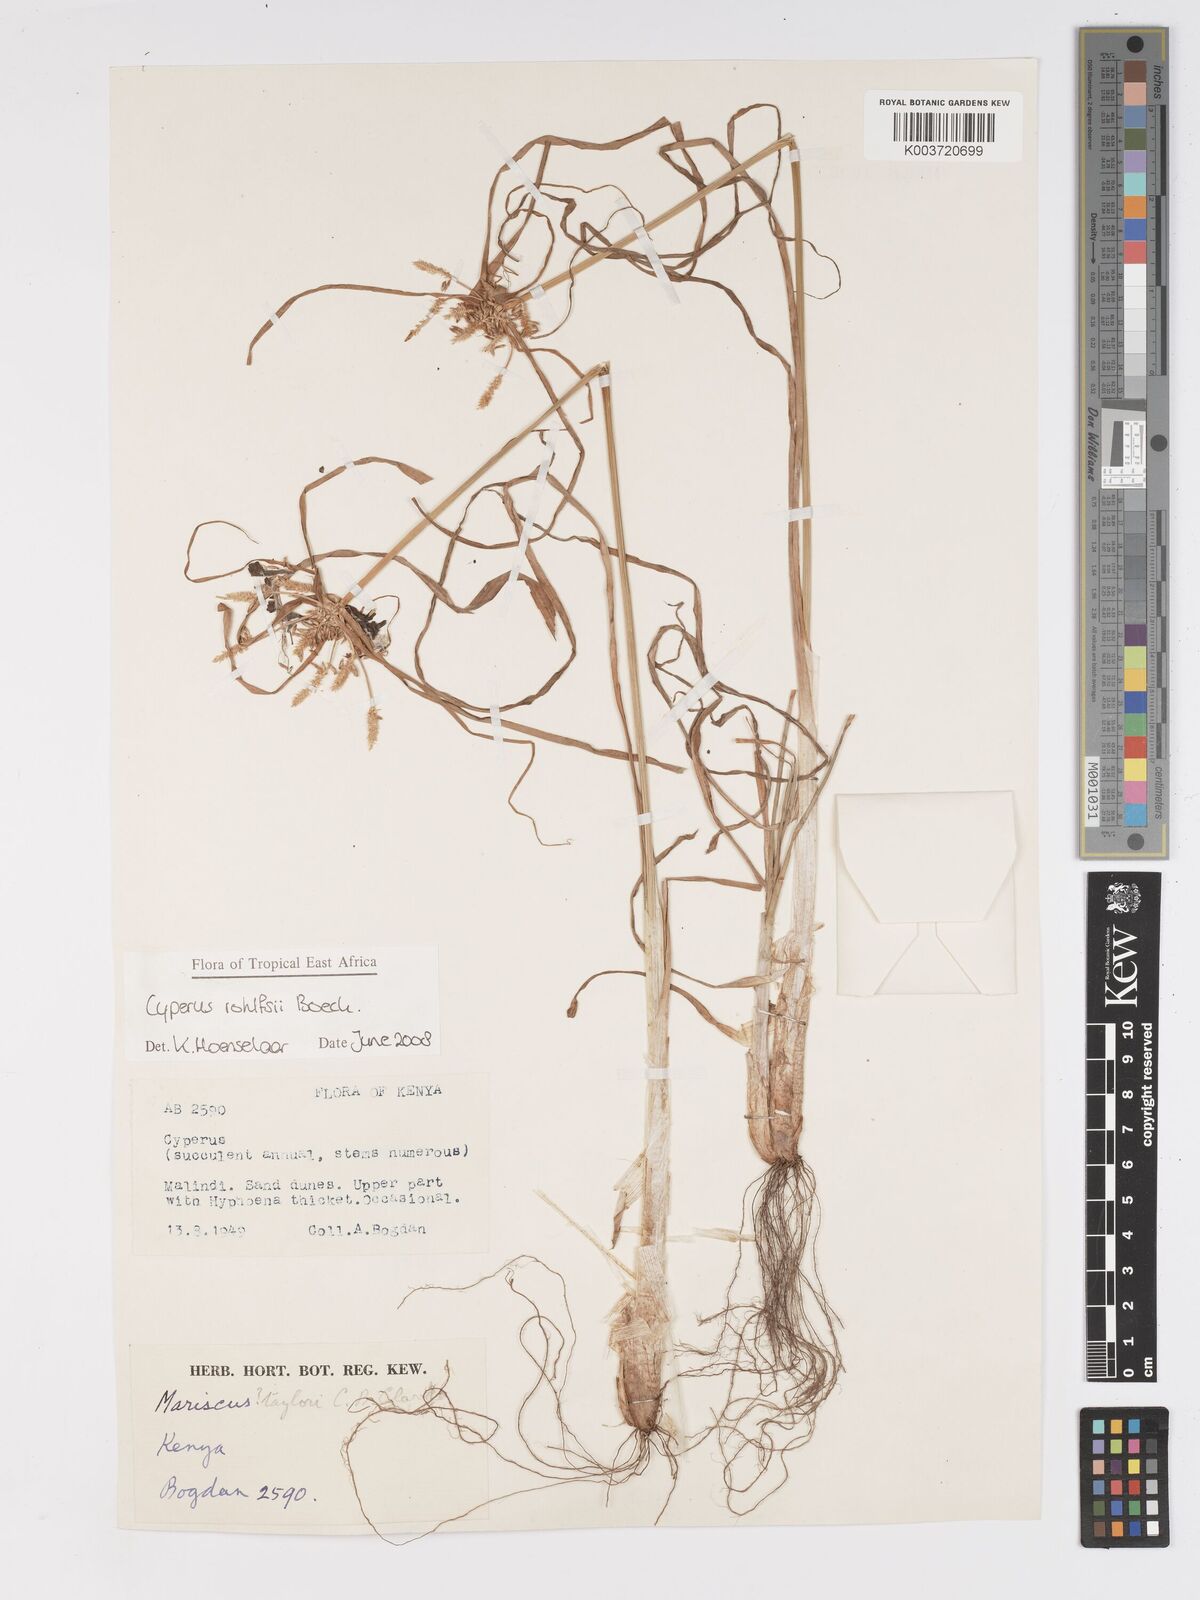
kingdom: Plantae
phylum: Tracheophyta
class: Liliopsida
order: Poales
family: Cyperaceae
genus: Cyperus
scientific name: Cyperus rohlfsii
